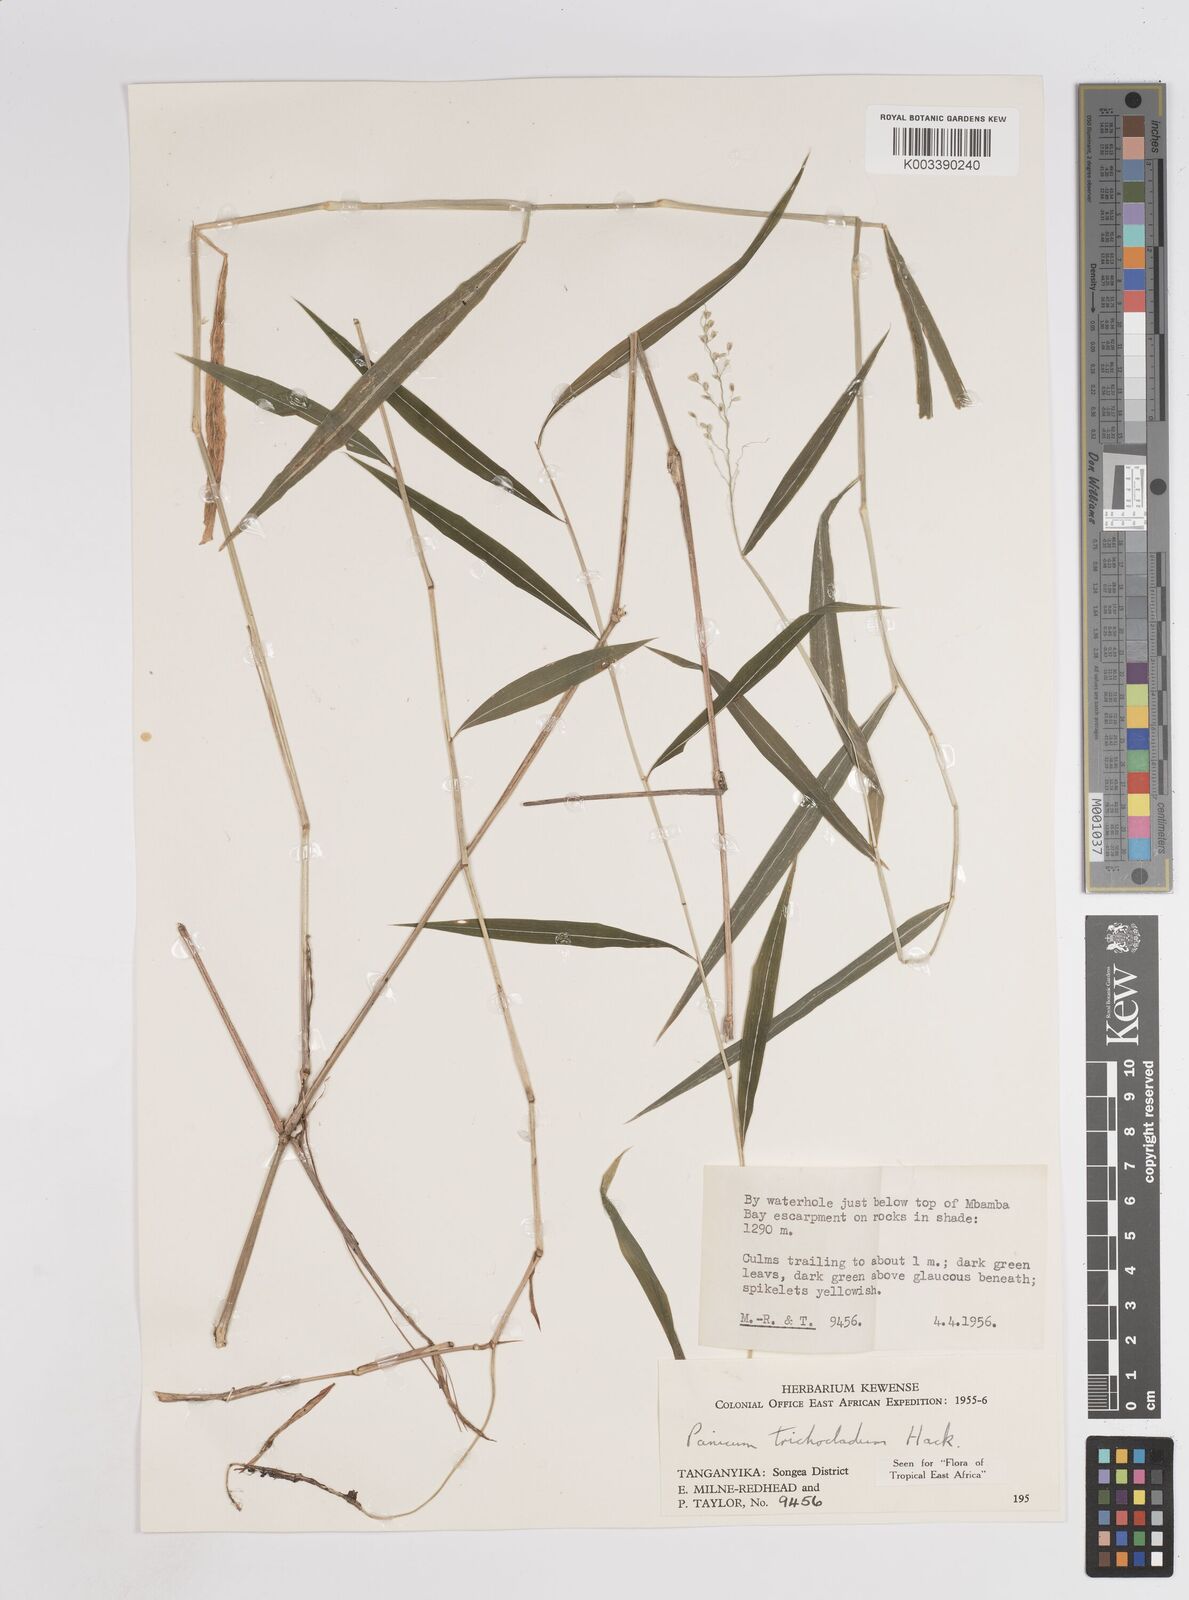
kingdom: Plantae
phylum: Tracheophyta
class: Liliopsida
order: Poales
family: Poaceae
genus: Panicum
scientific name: Panicum trichocladum
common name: Donkey grass
